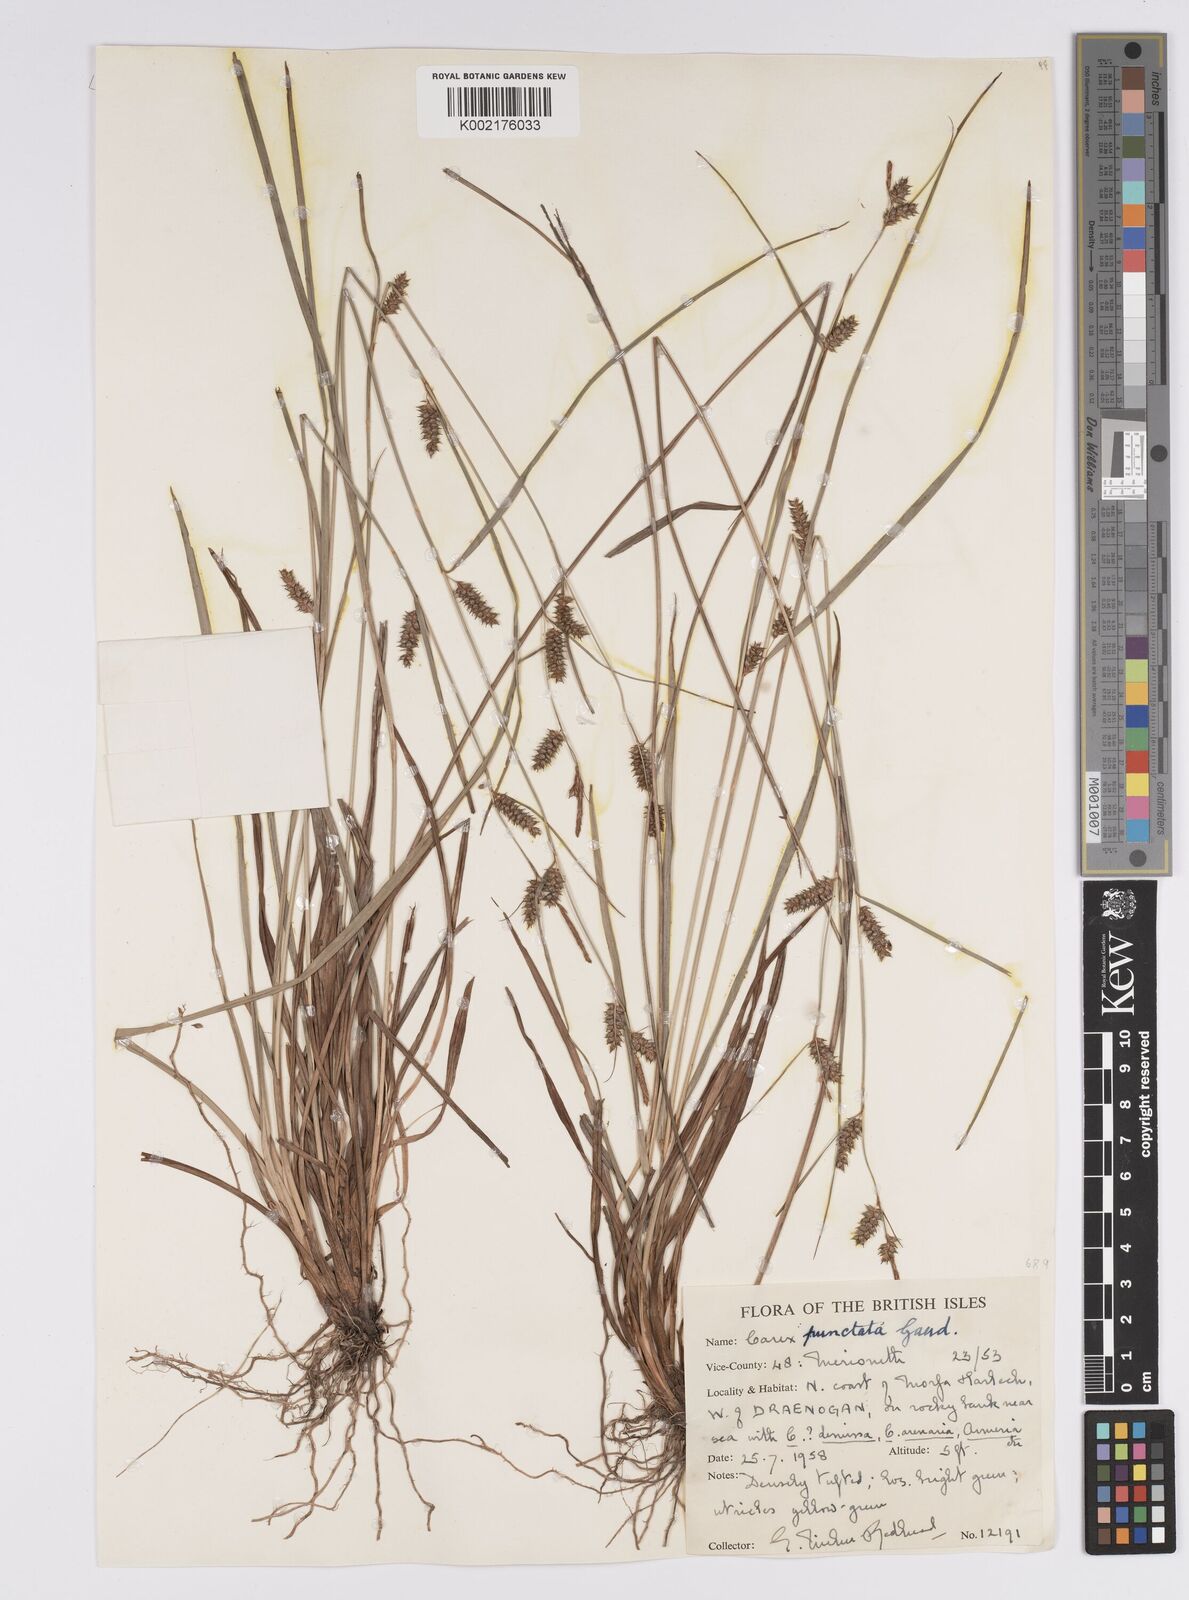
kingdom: Plantae
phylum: Tracheophyta
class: Liliopsida
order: Poales
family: Cyperaceae
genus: Carex
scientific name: Carex punctata
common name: Dotted sedge
